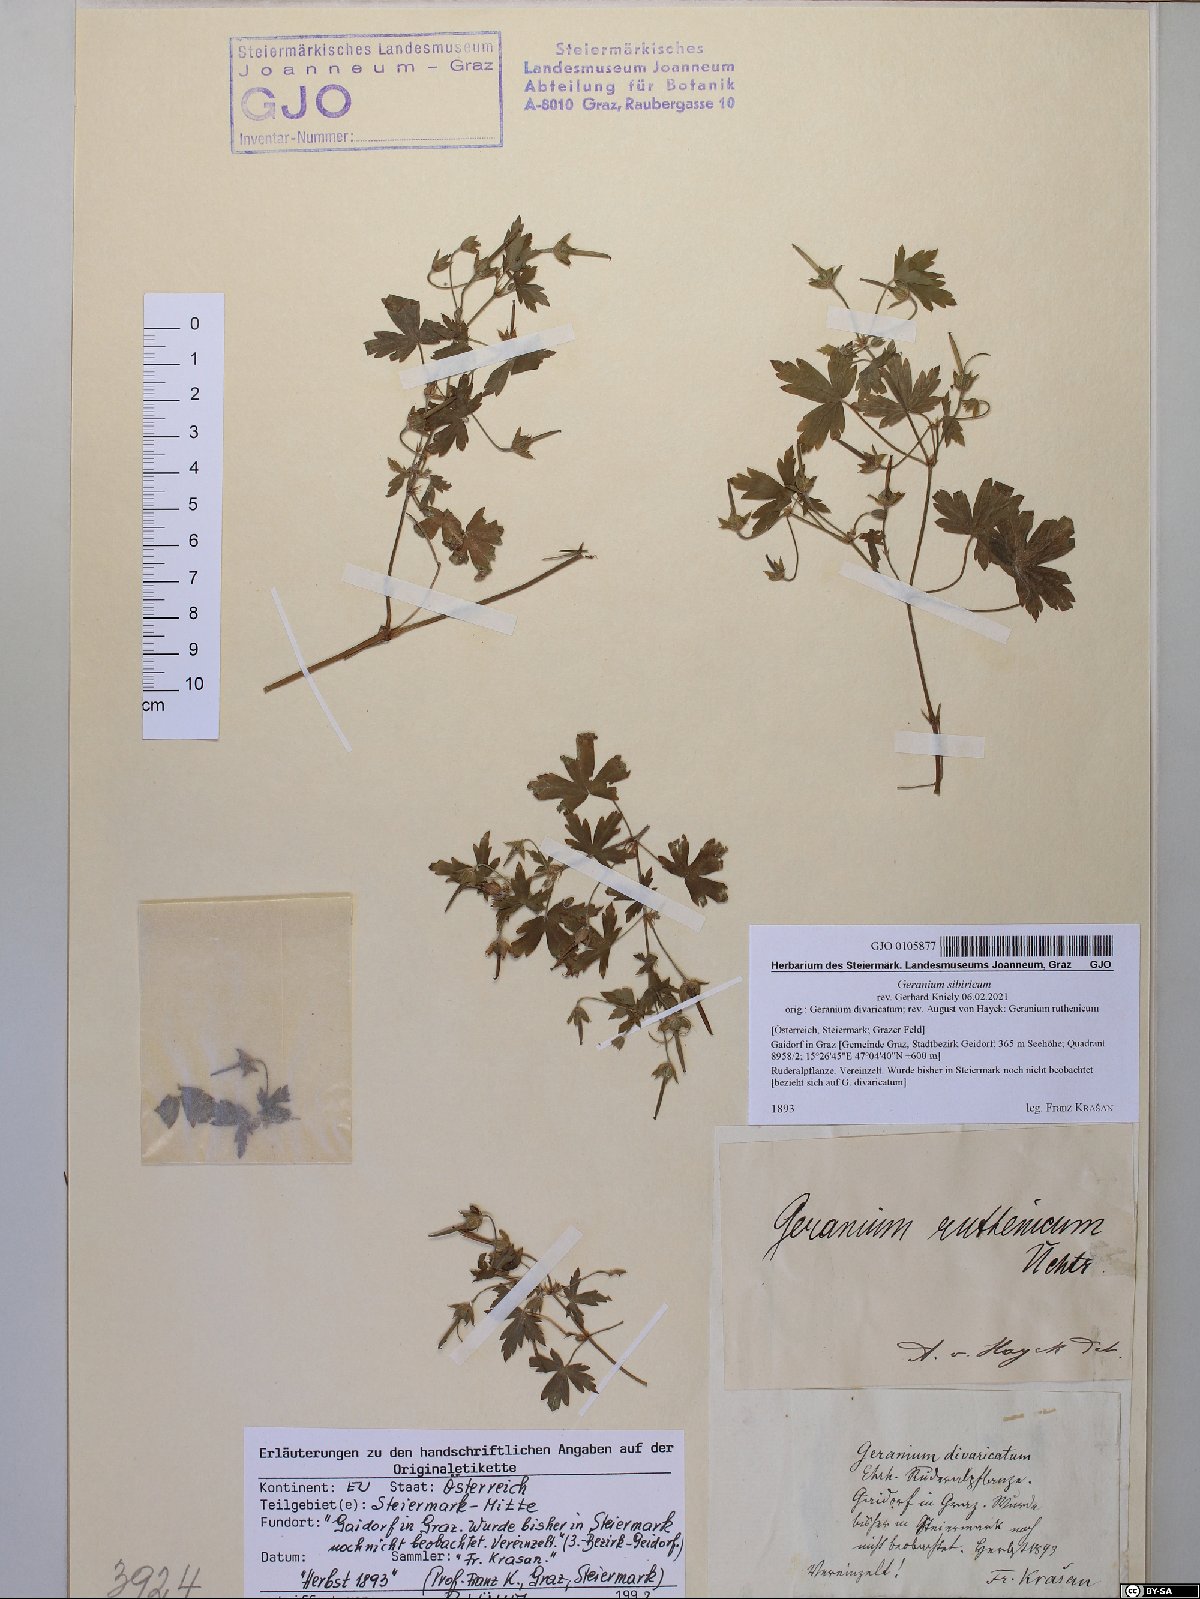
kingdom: Plantae
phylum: Tracheophyta
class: Magnoliopsida
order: Geraniales
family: Geraniaceae
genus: Geranium
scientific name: Geranium sibiricum
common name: Siberian crane's-bill
